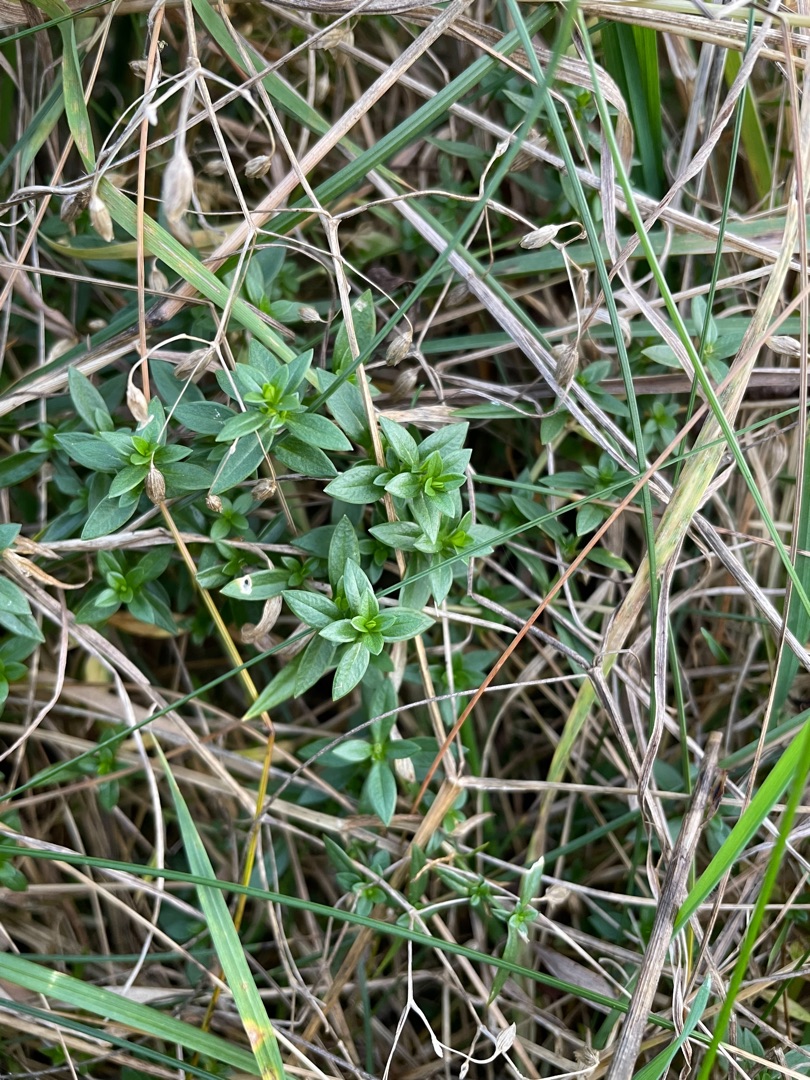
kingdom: Plantae
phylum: Tracheophyta
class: Magnoliopsida
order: Caryophyllales
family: Caryophyllaceae
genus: Stellaria
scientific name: Stellaria graminea
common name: Græsbladet fladstjerne
